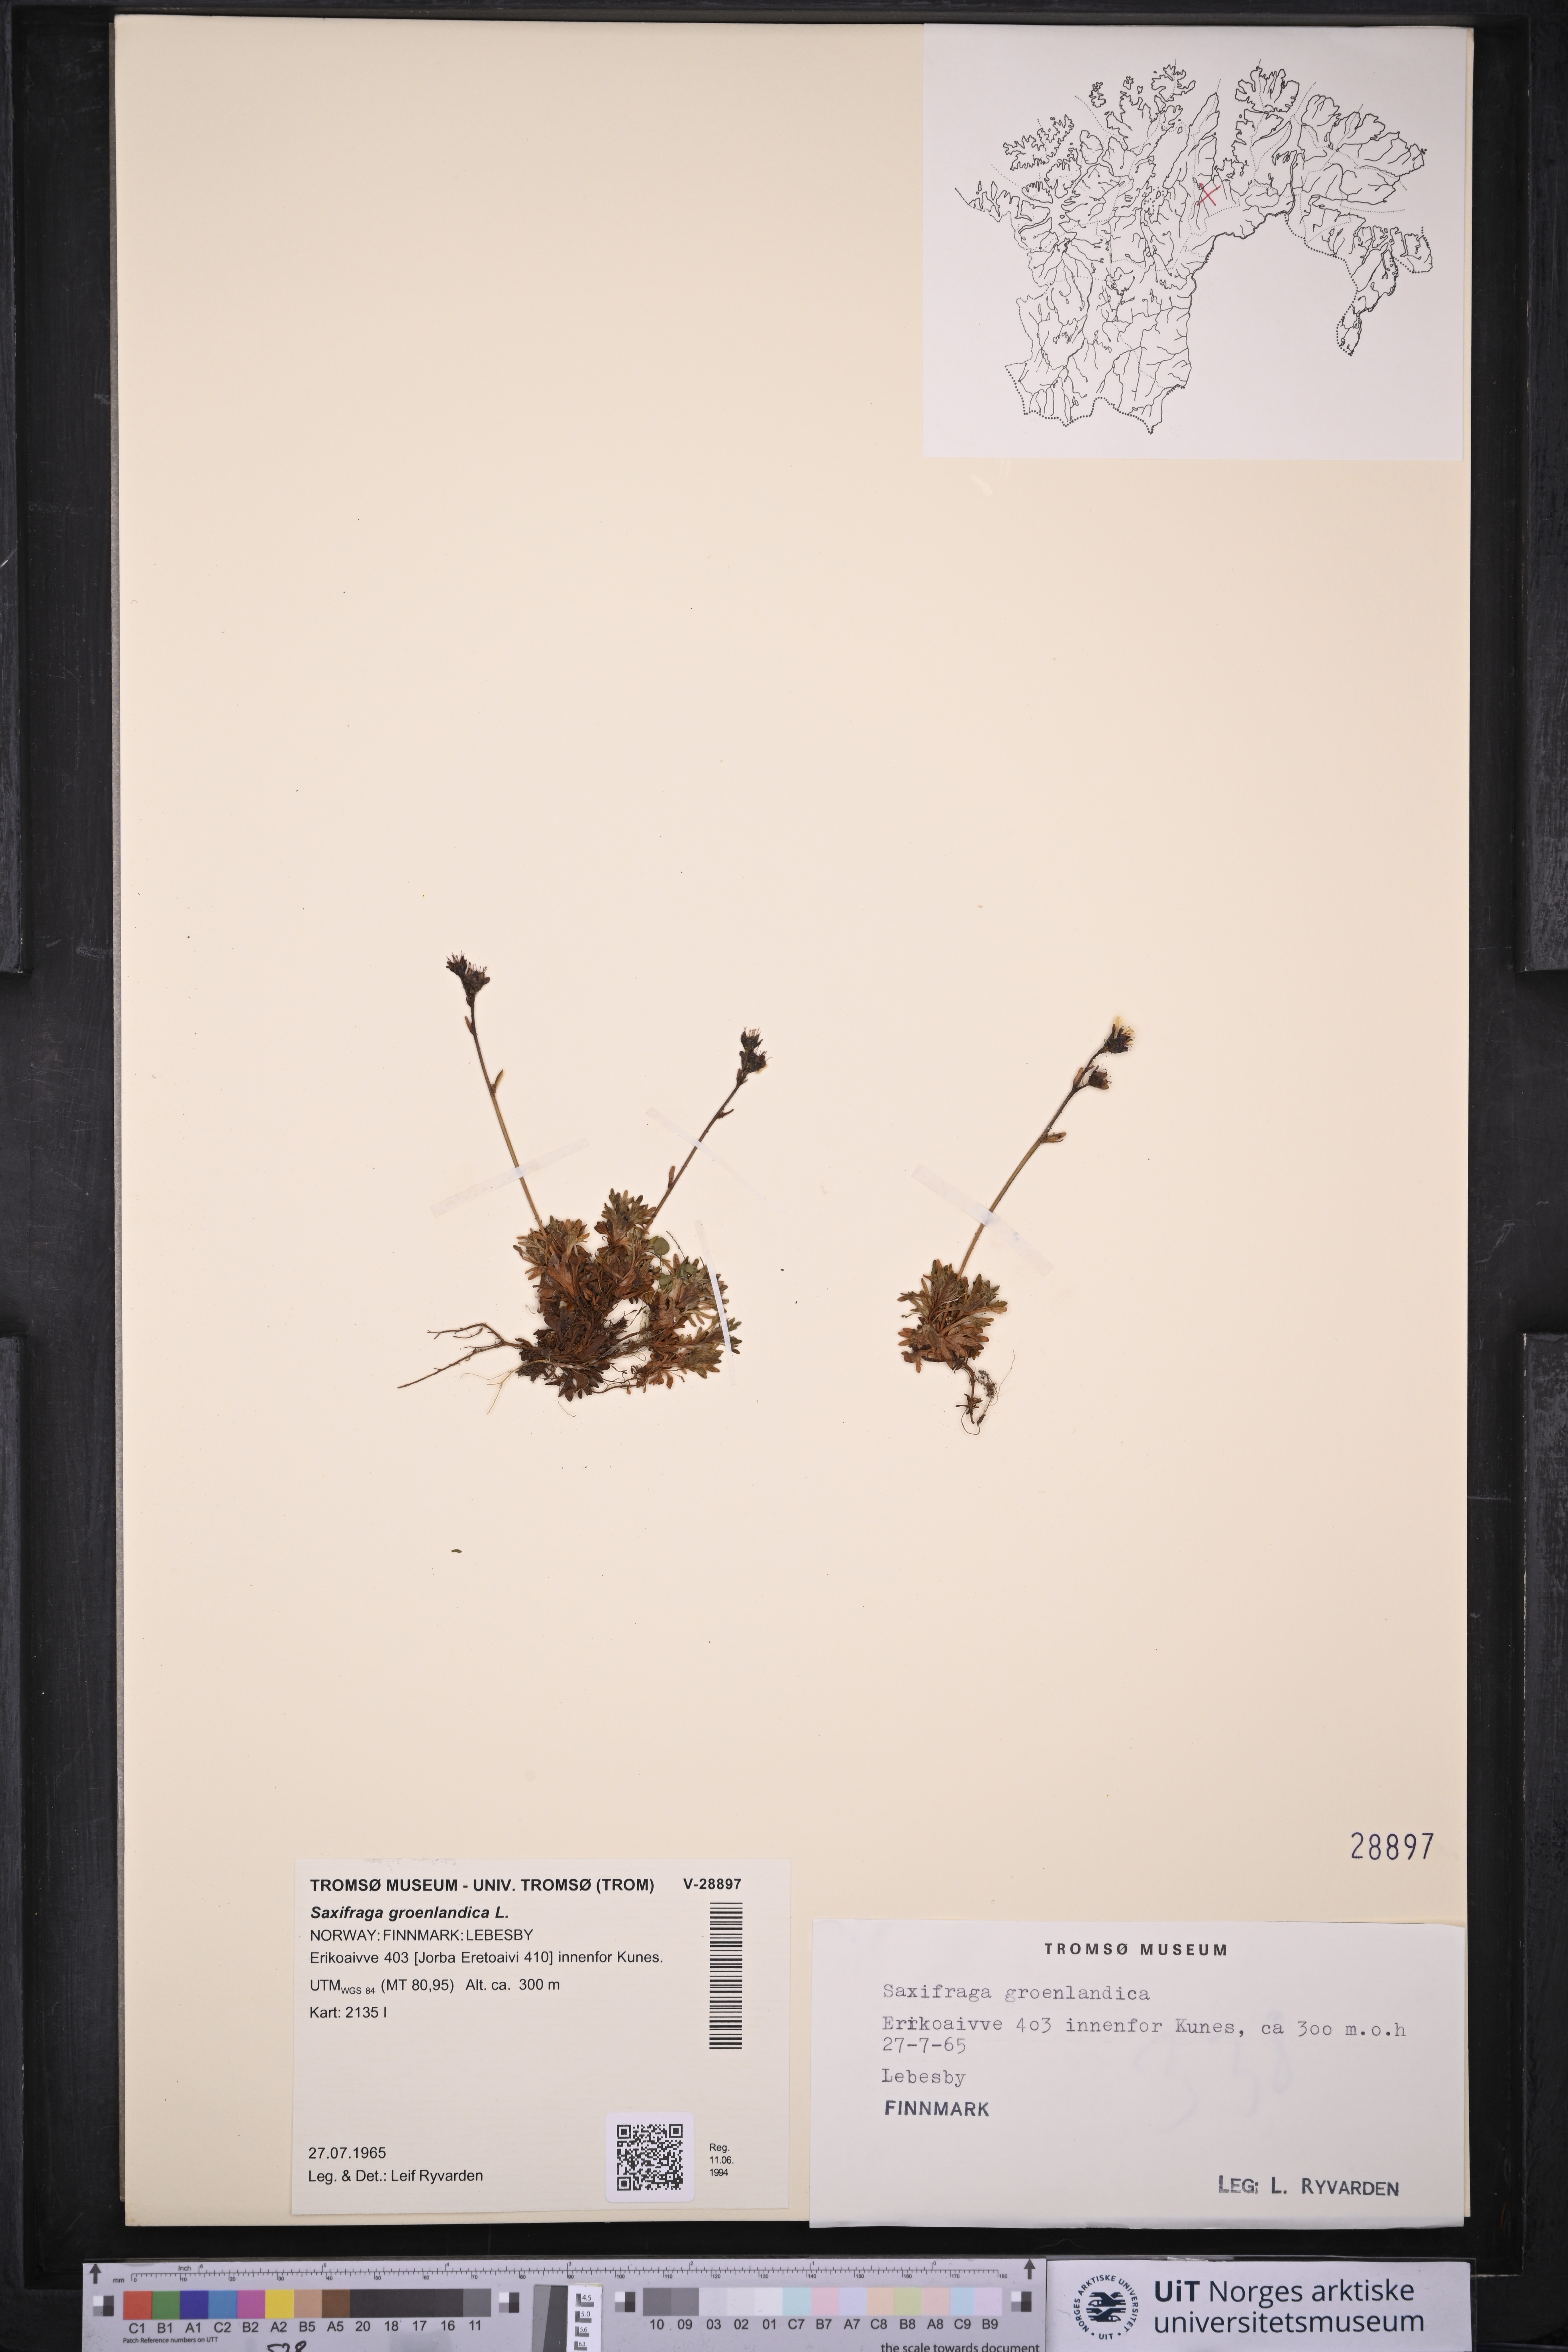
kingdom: Plantae
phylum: Tracheophyta
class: Magnoliopsida
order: Saxifragales
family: Saxifragaceae
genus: Saxifraga
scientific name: Saxifraga cespitosa
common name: Tufted saxifrage
